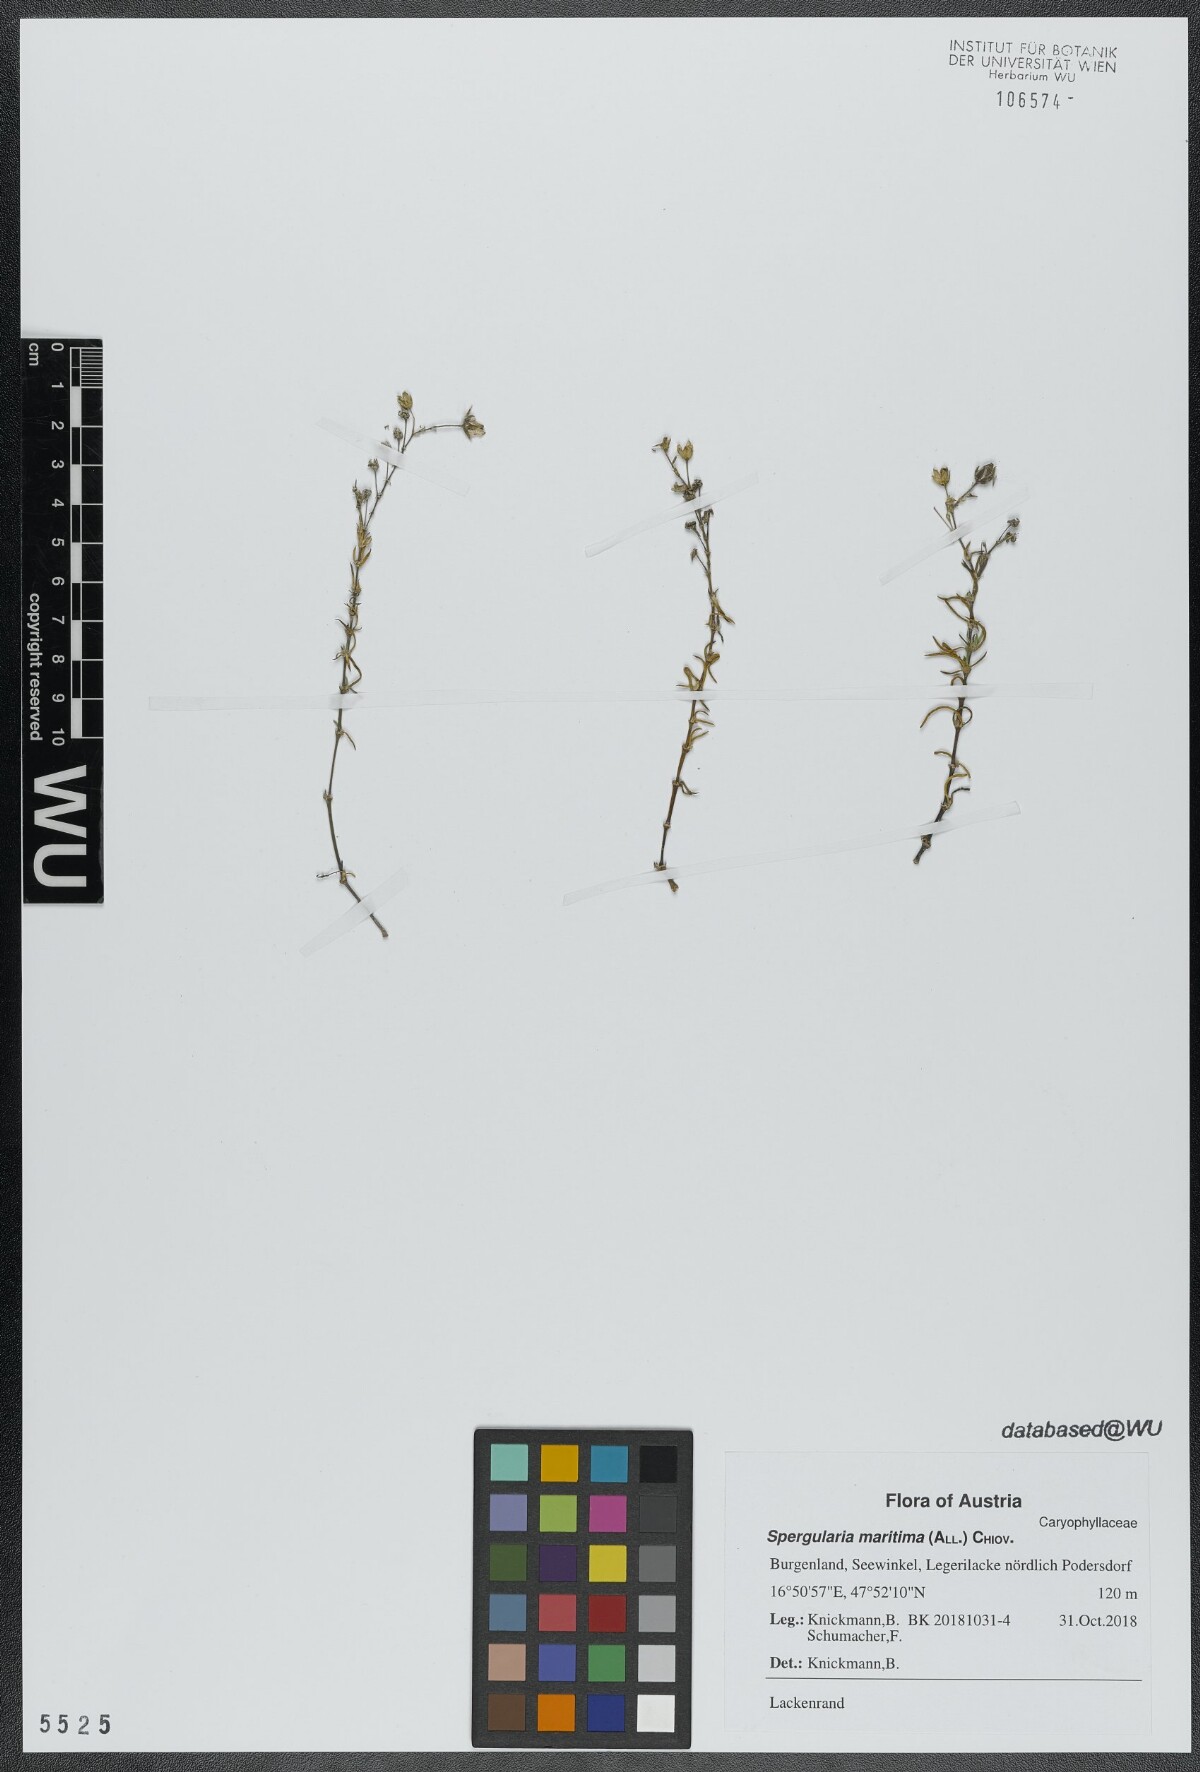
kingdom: Plantae
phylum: Tracheophyta
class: Magnoliopsida
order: Caryophyllales
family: Caryophyllaceae
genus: Spergularia
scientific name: Spergularia media
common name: Greater sea-spurrey
